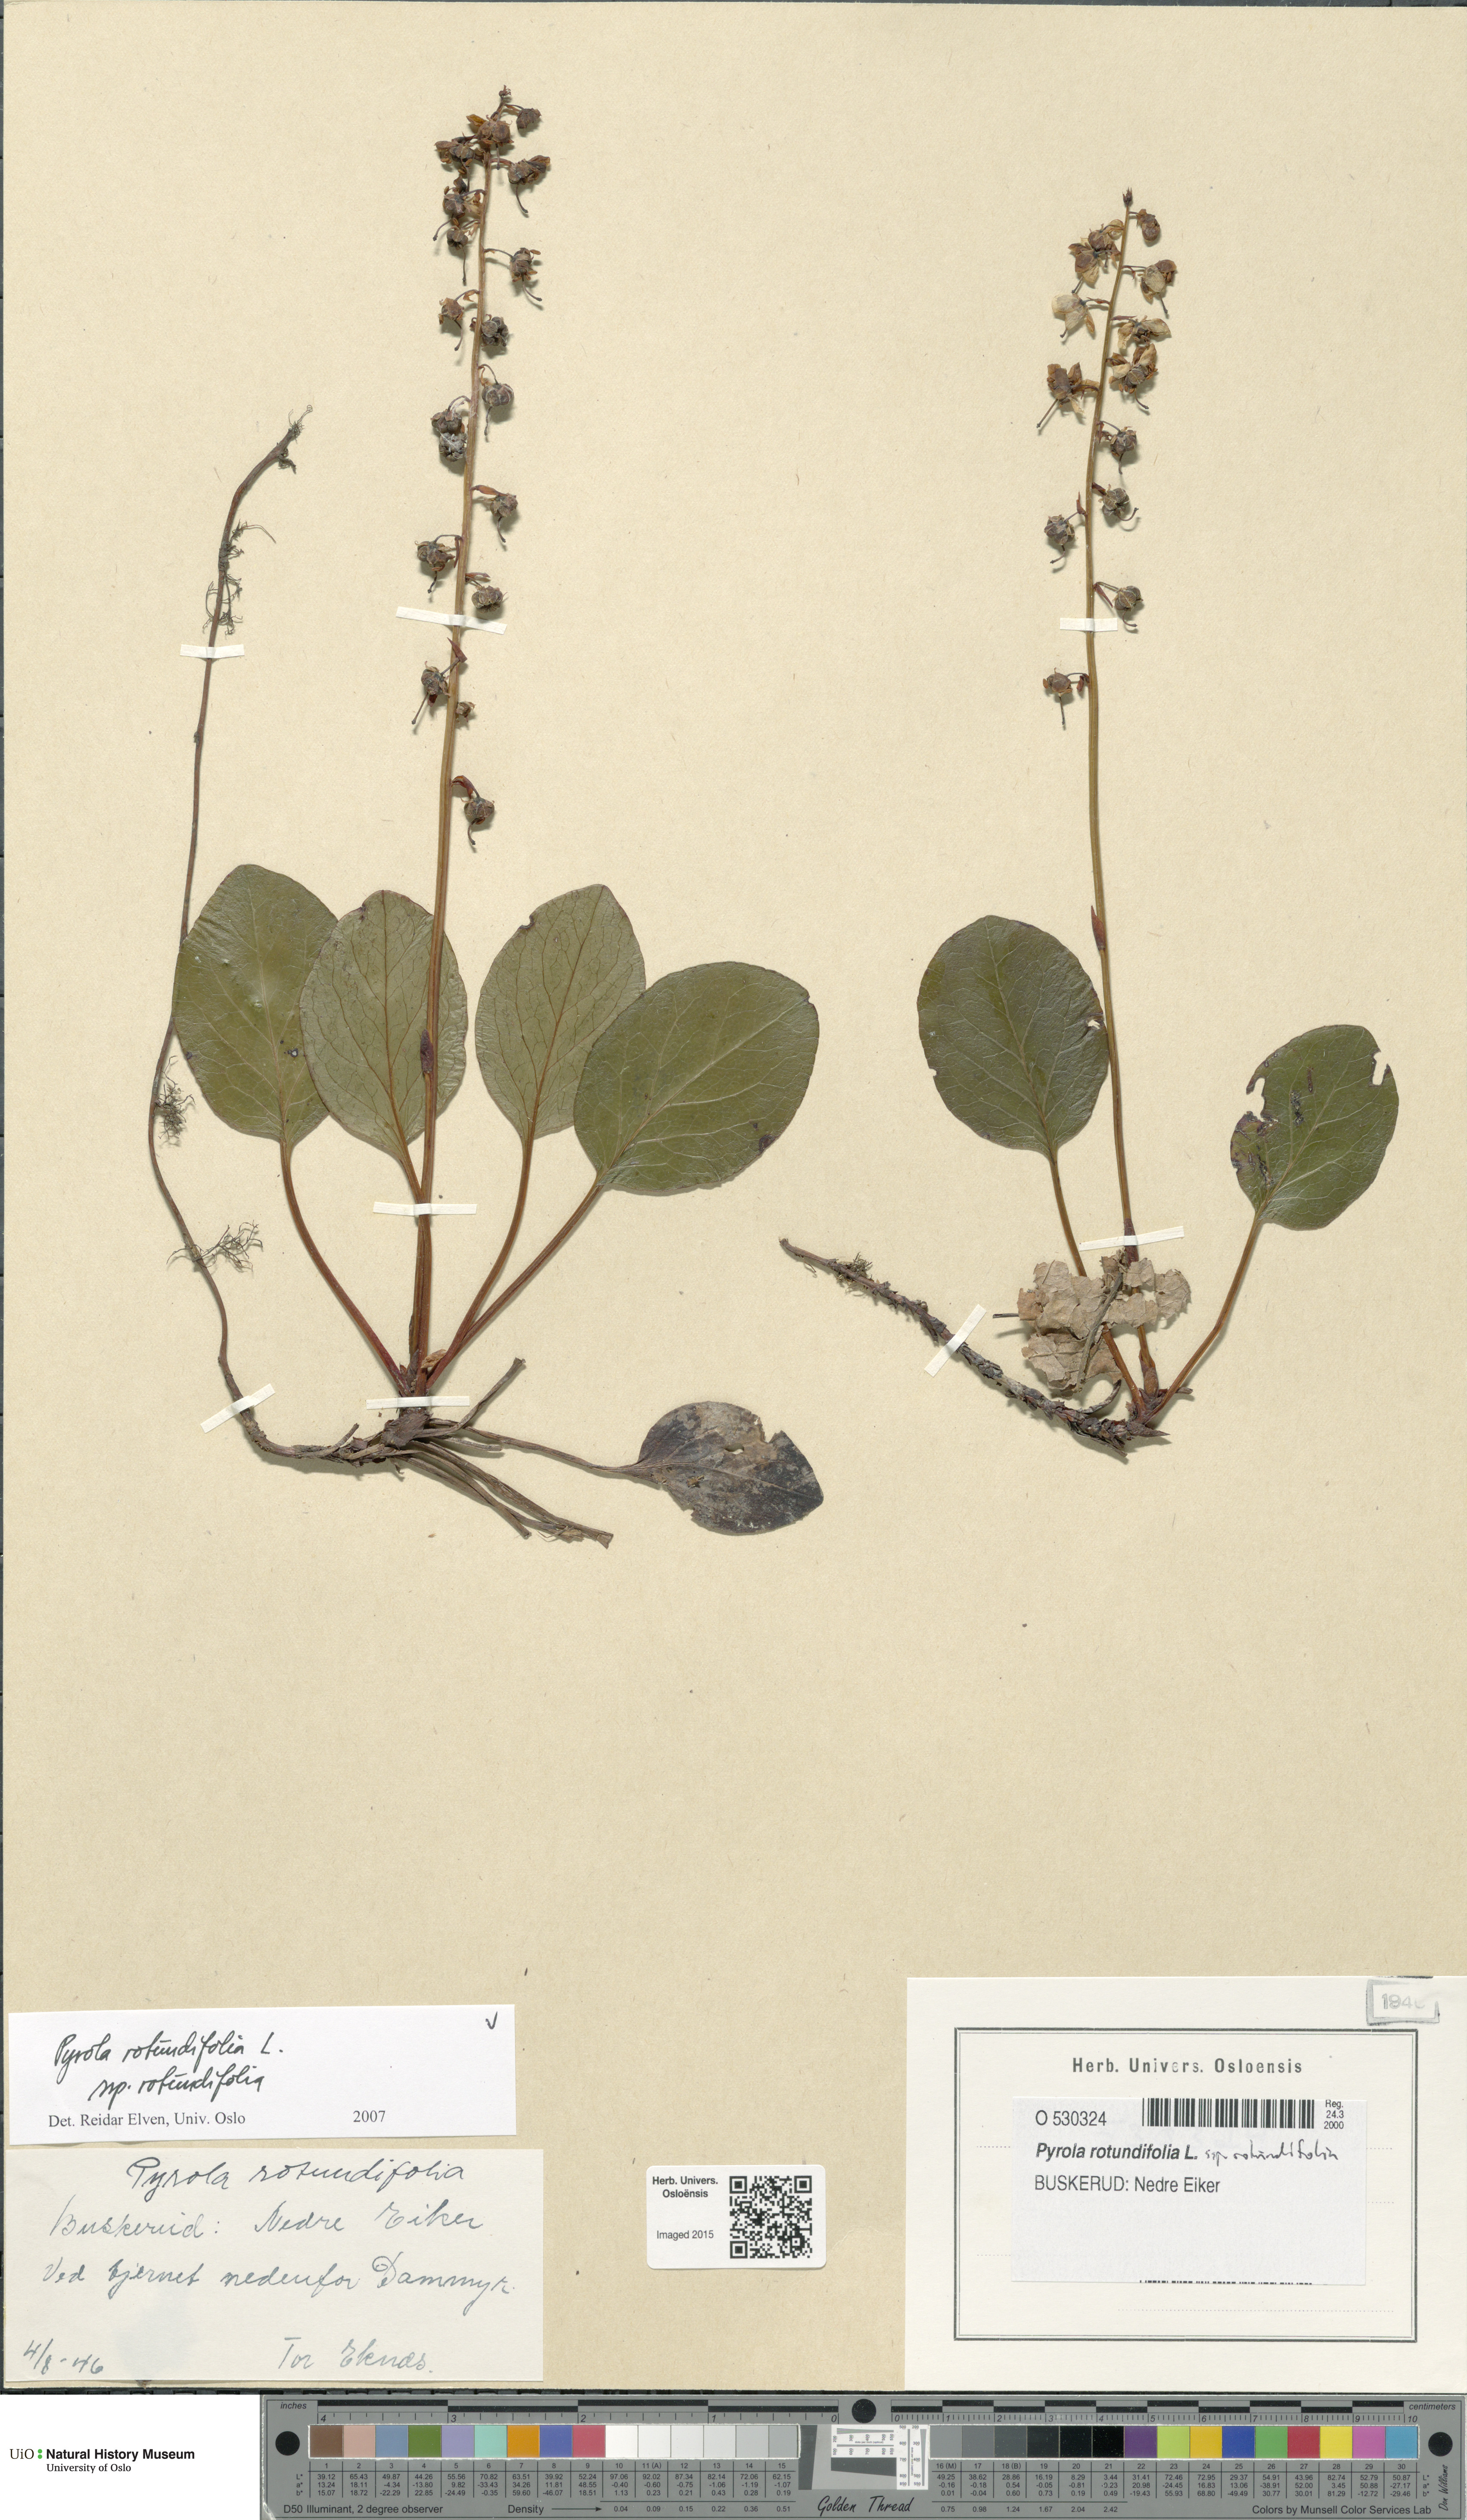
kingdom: Plantae
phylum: Tracheophyta
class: Magnoliopsida
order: Ericales
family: Ericaceae
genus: Pyrola
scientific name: Pyrola rotundifolia
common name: Round-leaved wintergreen
